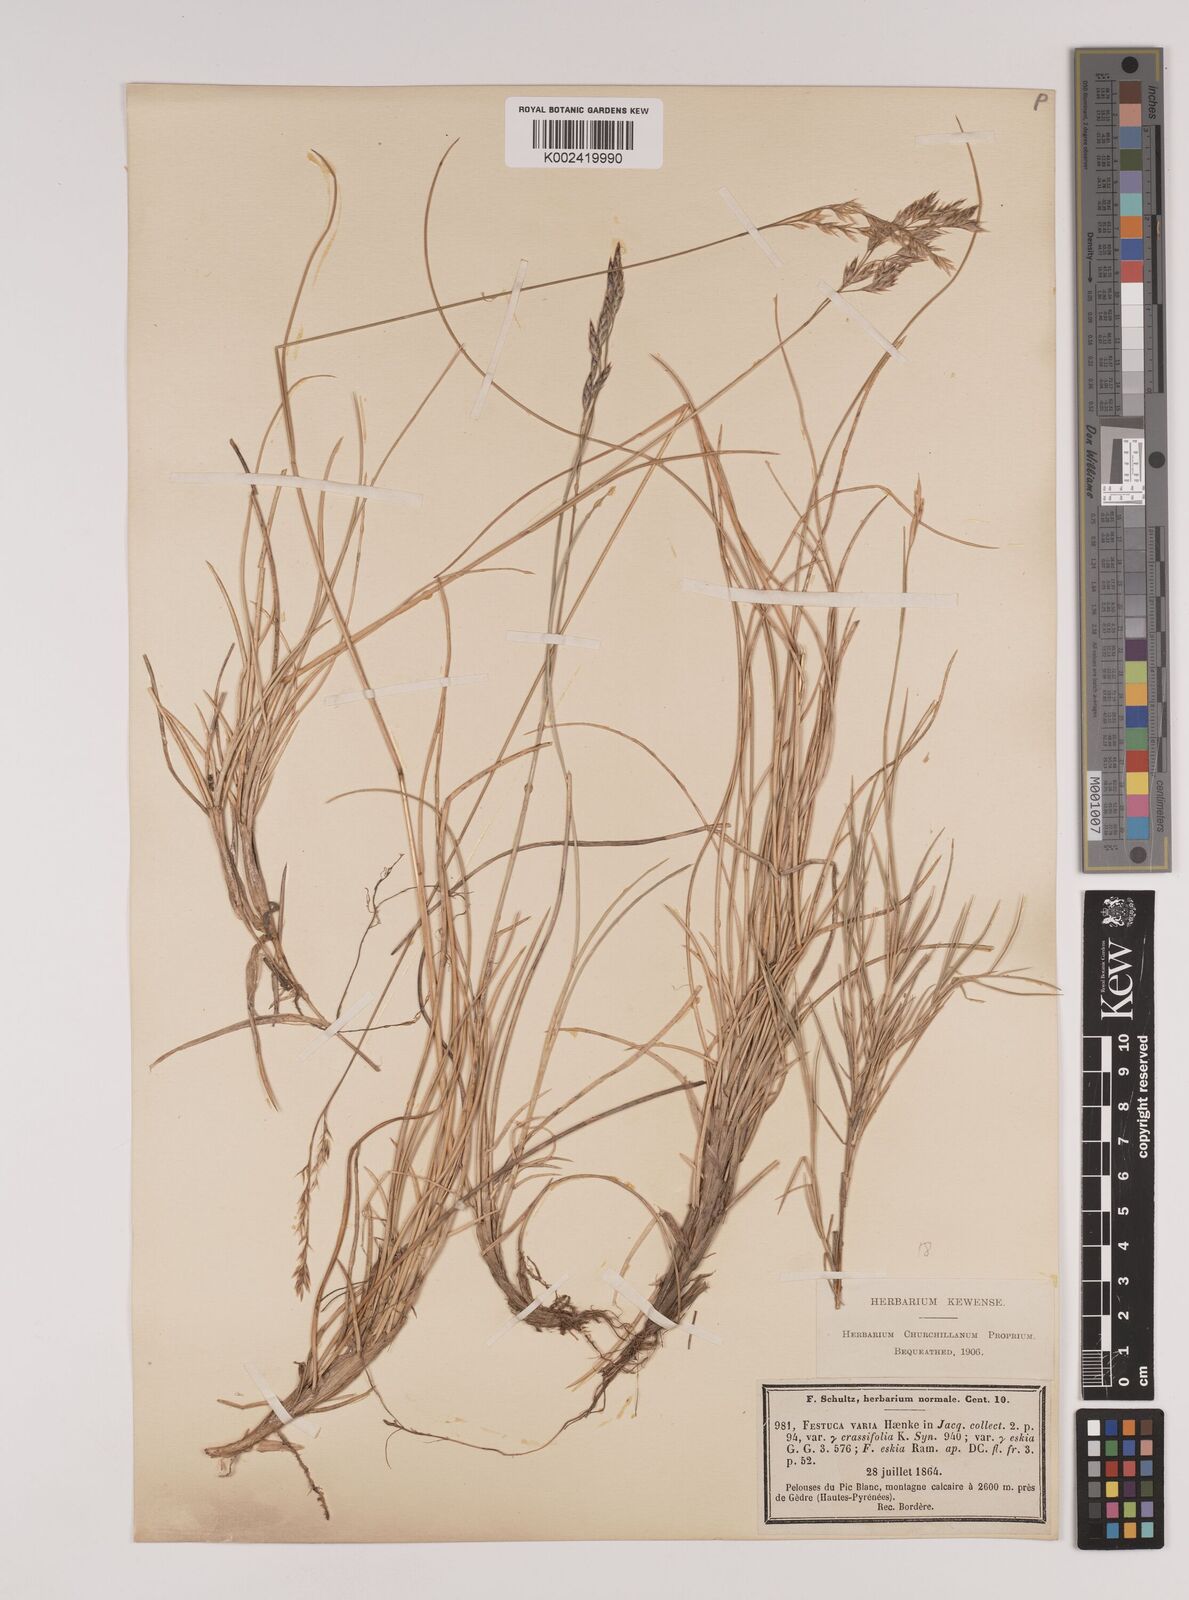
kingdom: Plantae
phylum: Tracheophyta
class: Liliopsida
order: Poales
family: Poaceae
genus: Festuca
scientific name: Festuca eskia
